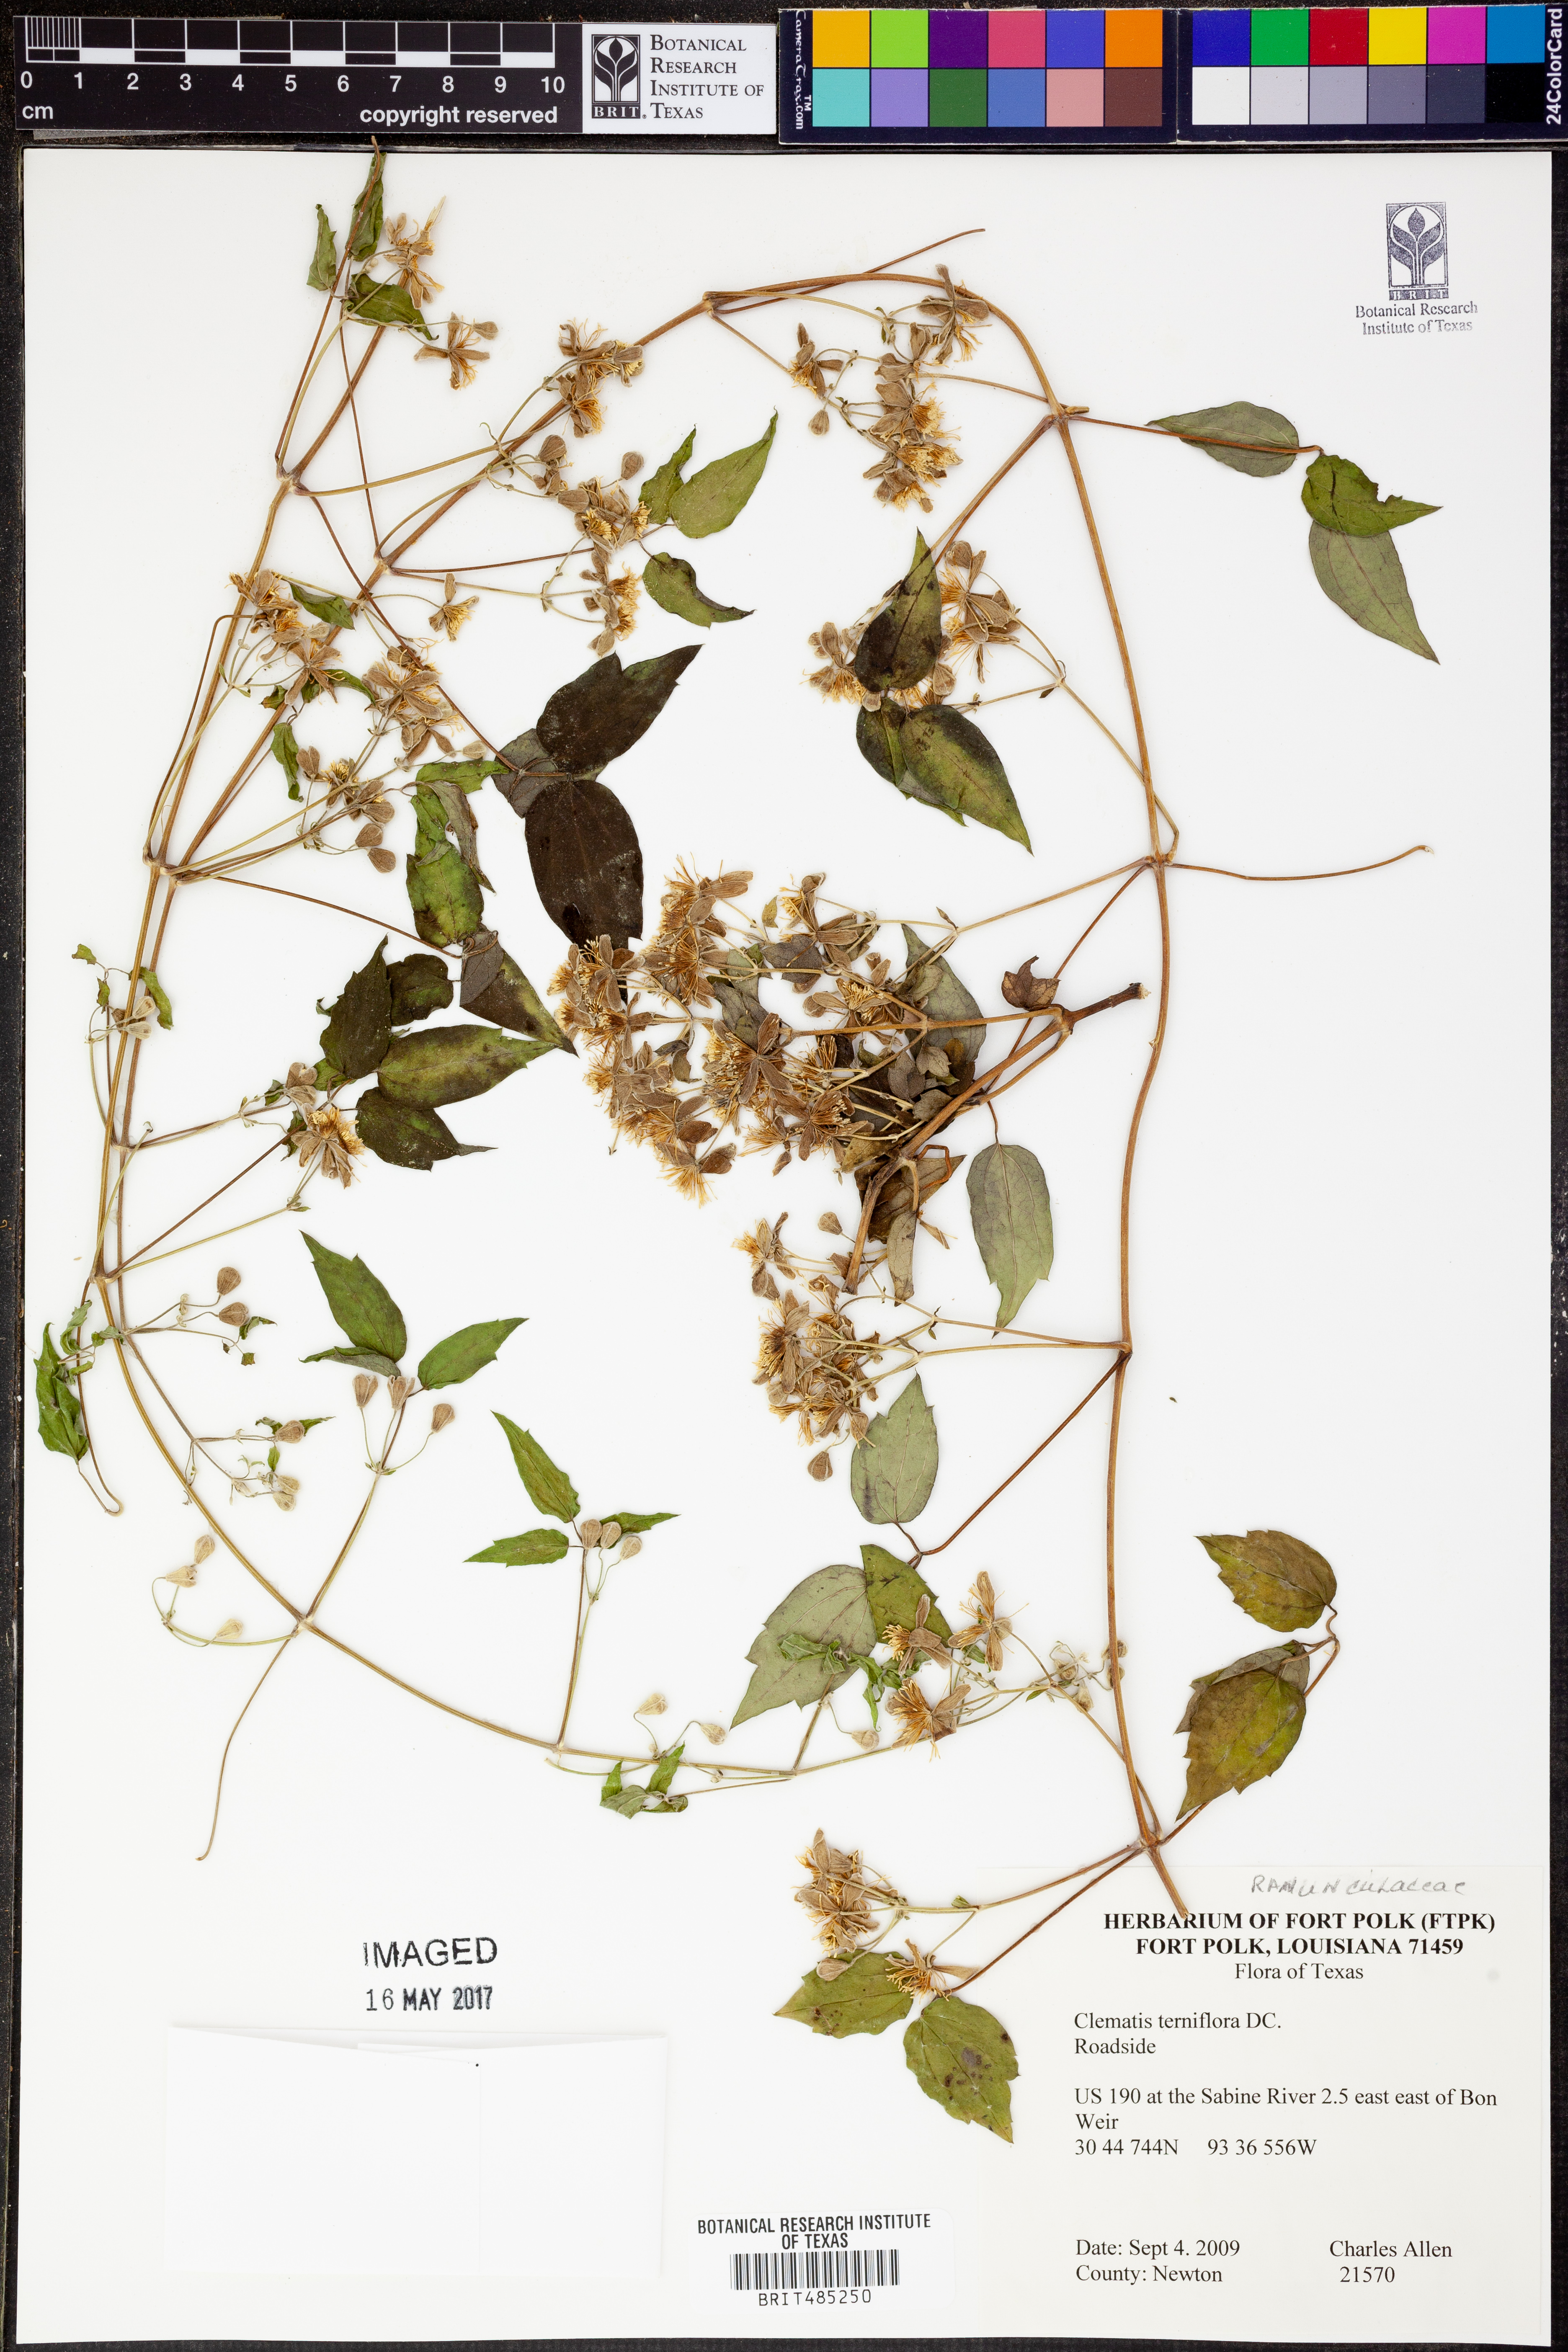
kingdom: Plantae
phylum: Tracheophyta
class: Magnoliopsida
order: Ranunculales
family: Ranunculaceae
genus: Clematis
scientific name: Clematis terniflora
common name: Sweet autumn clematis
